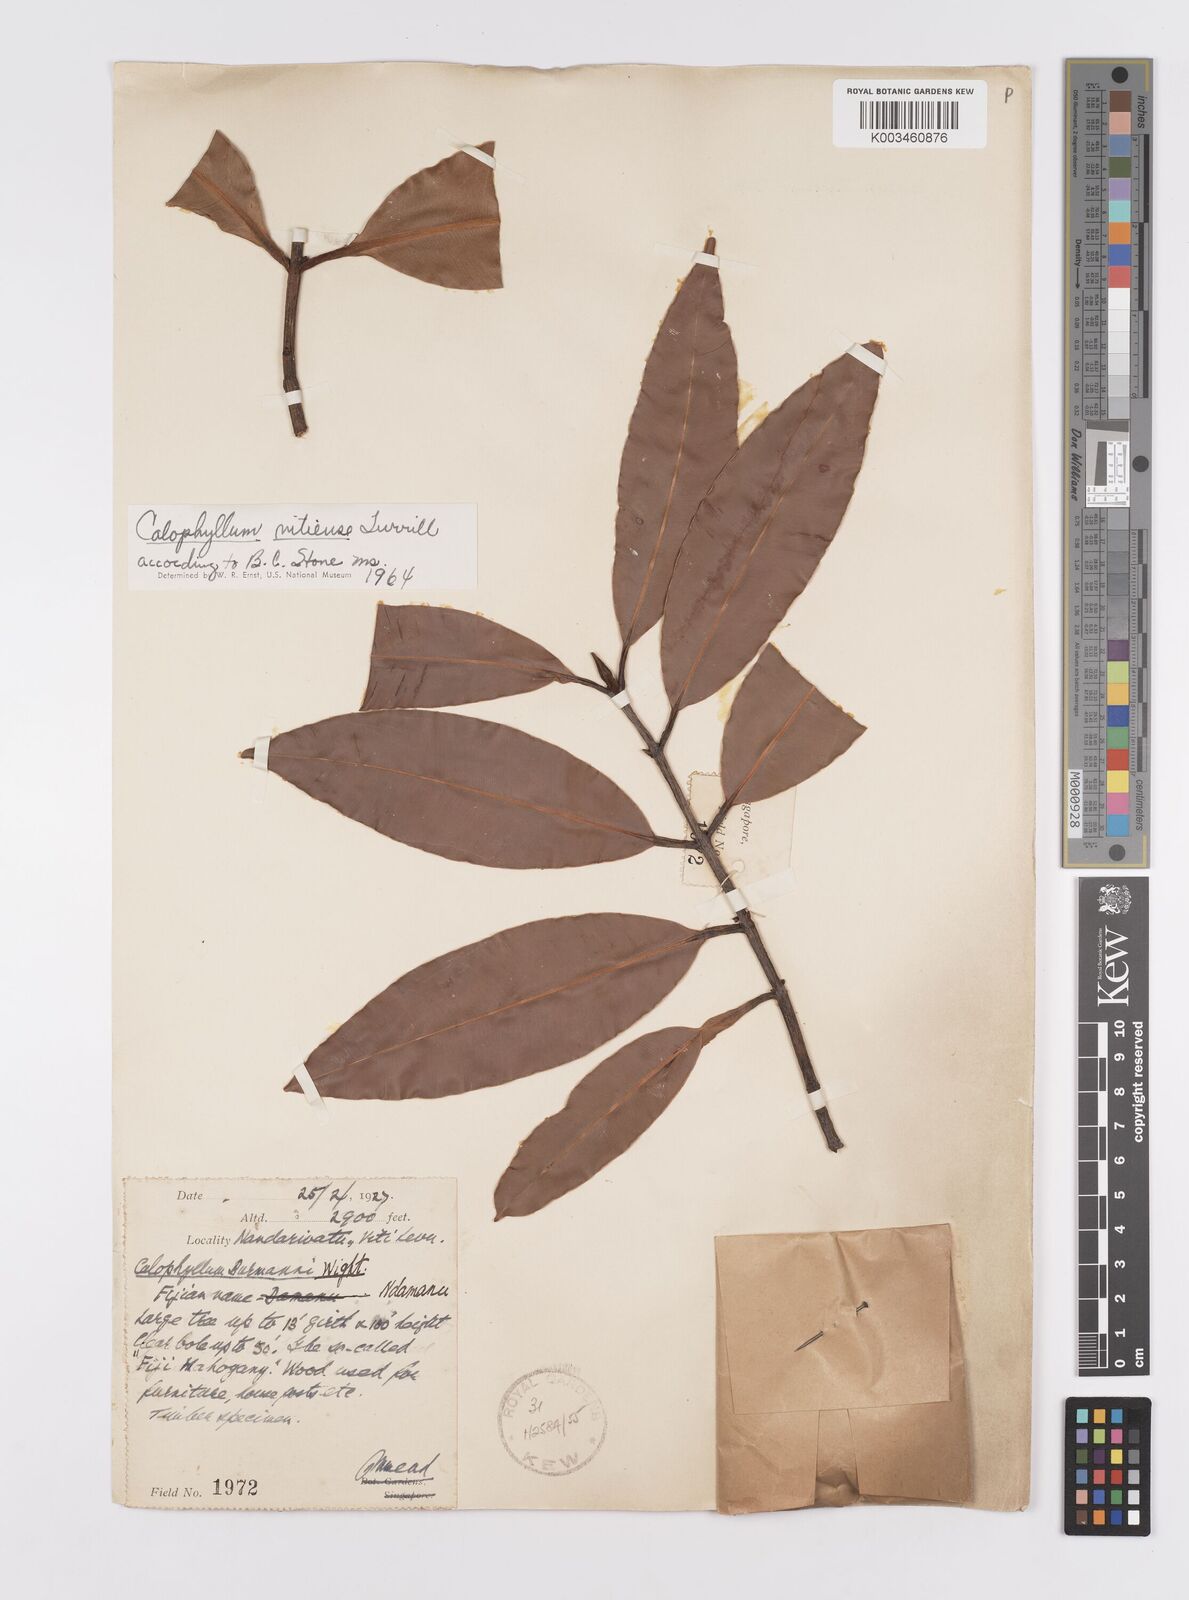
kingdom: Plantae
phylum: Tracheophyta
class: Magnoliopsida
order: Malpighiales
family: Calophyllaceae
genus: Calophyllum
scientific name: Calophyllum vitiense
